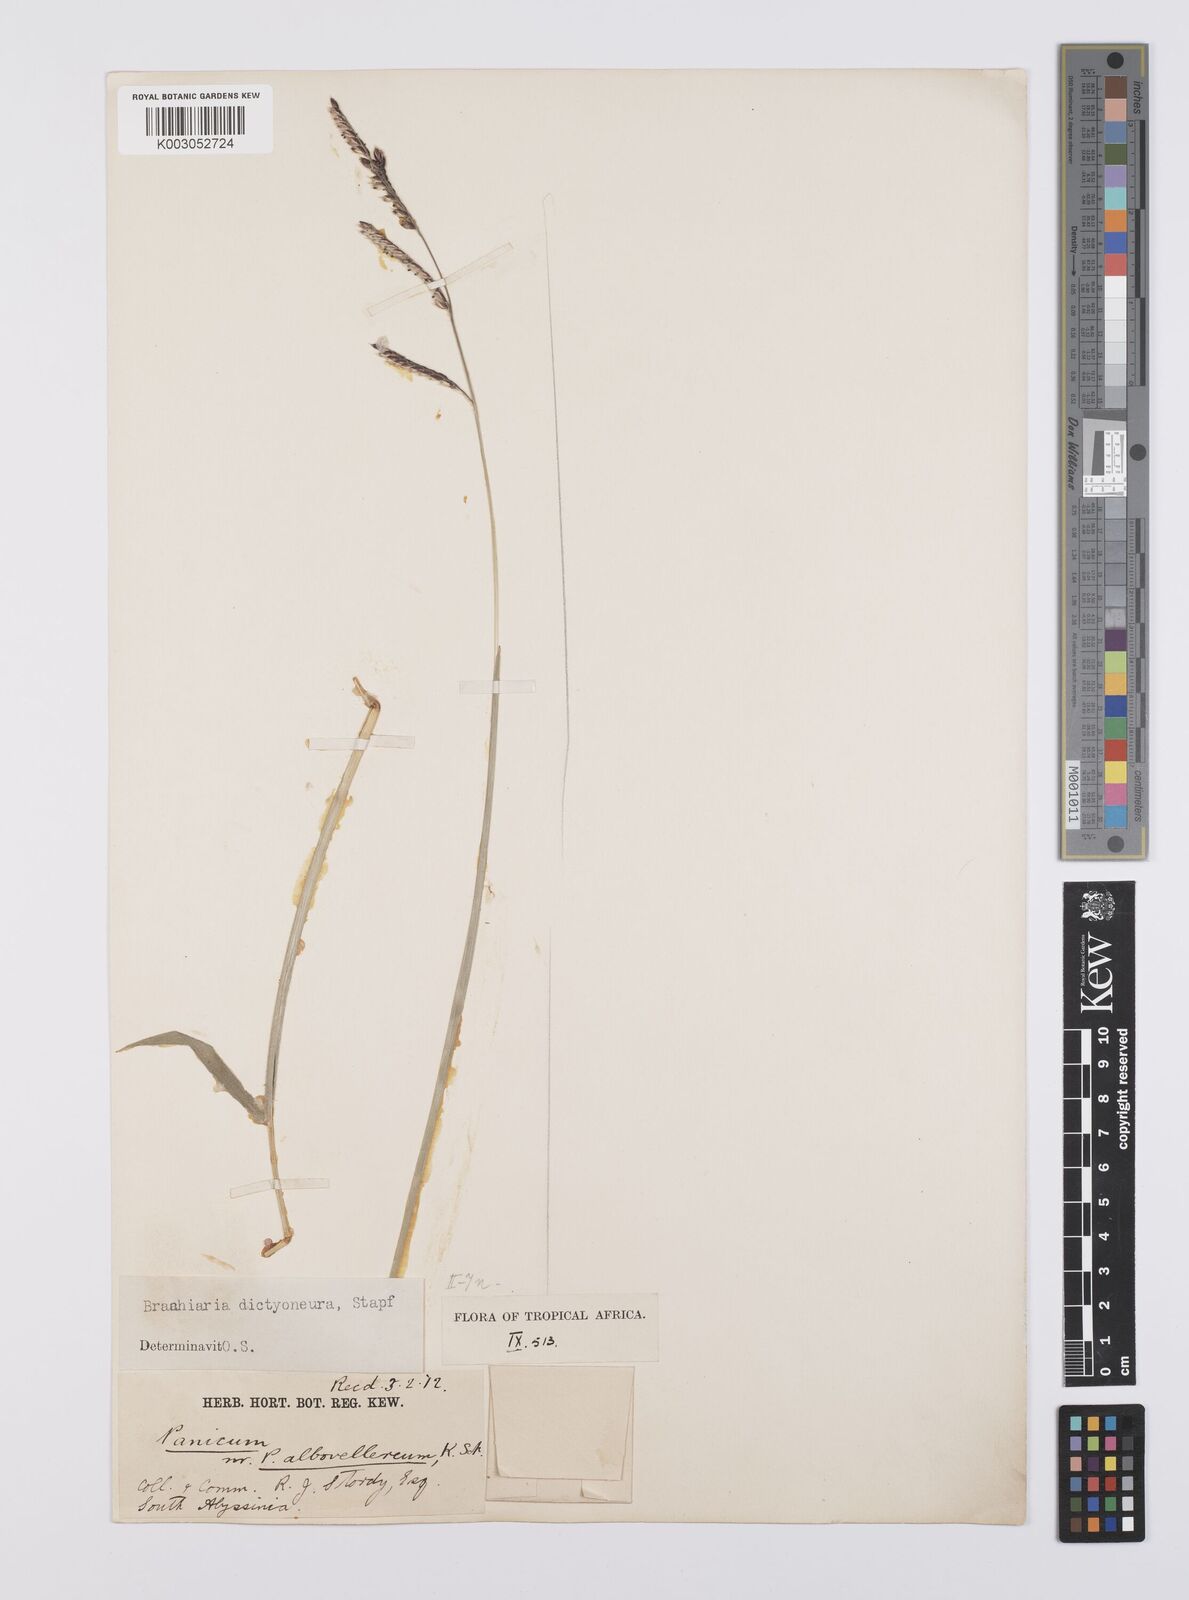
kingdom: Plantae
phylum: Tracheophyta
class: Liliopsida
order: Poales
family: Poaceae
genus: Urochloa
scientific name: Urochloa dictyoneura
